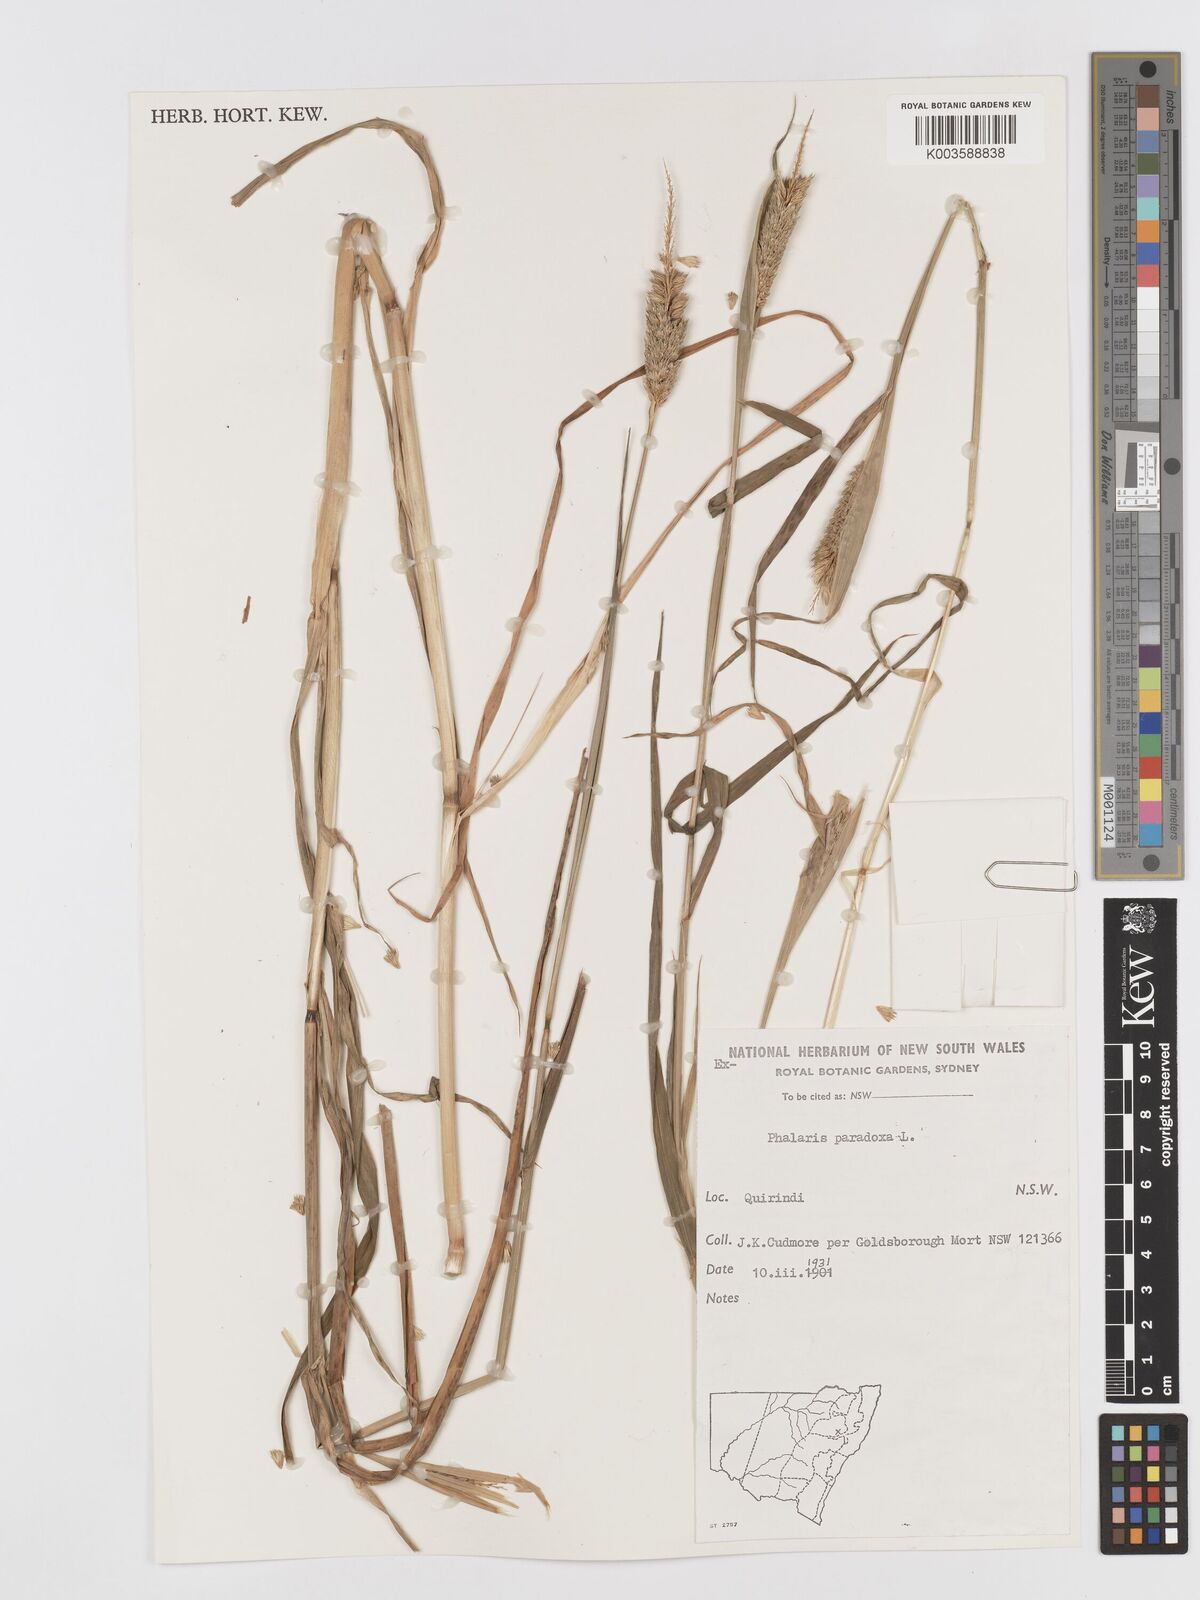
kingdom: Plantae
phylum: Tracheophyta
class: Liliopsida
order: Poales
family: Poaceae
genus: Phalaris
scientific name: Phalaris paradoxa
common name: Awned canary-grass
